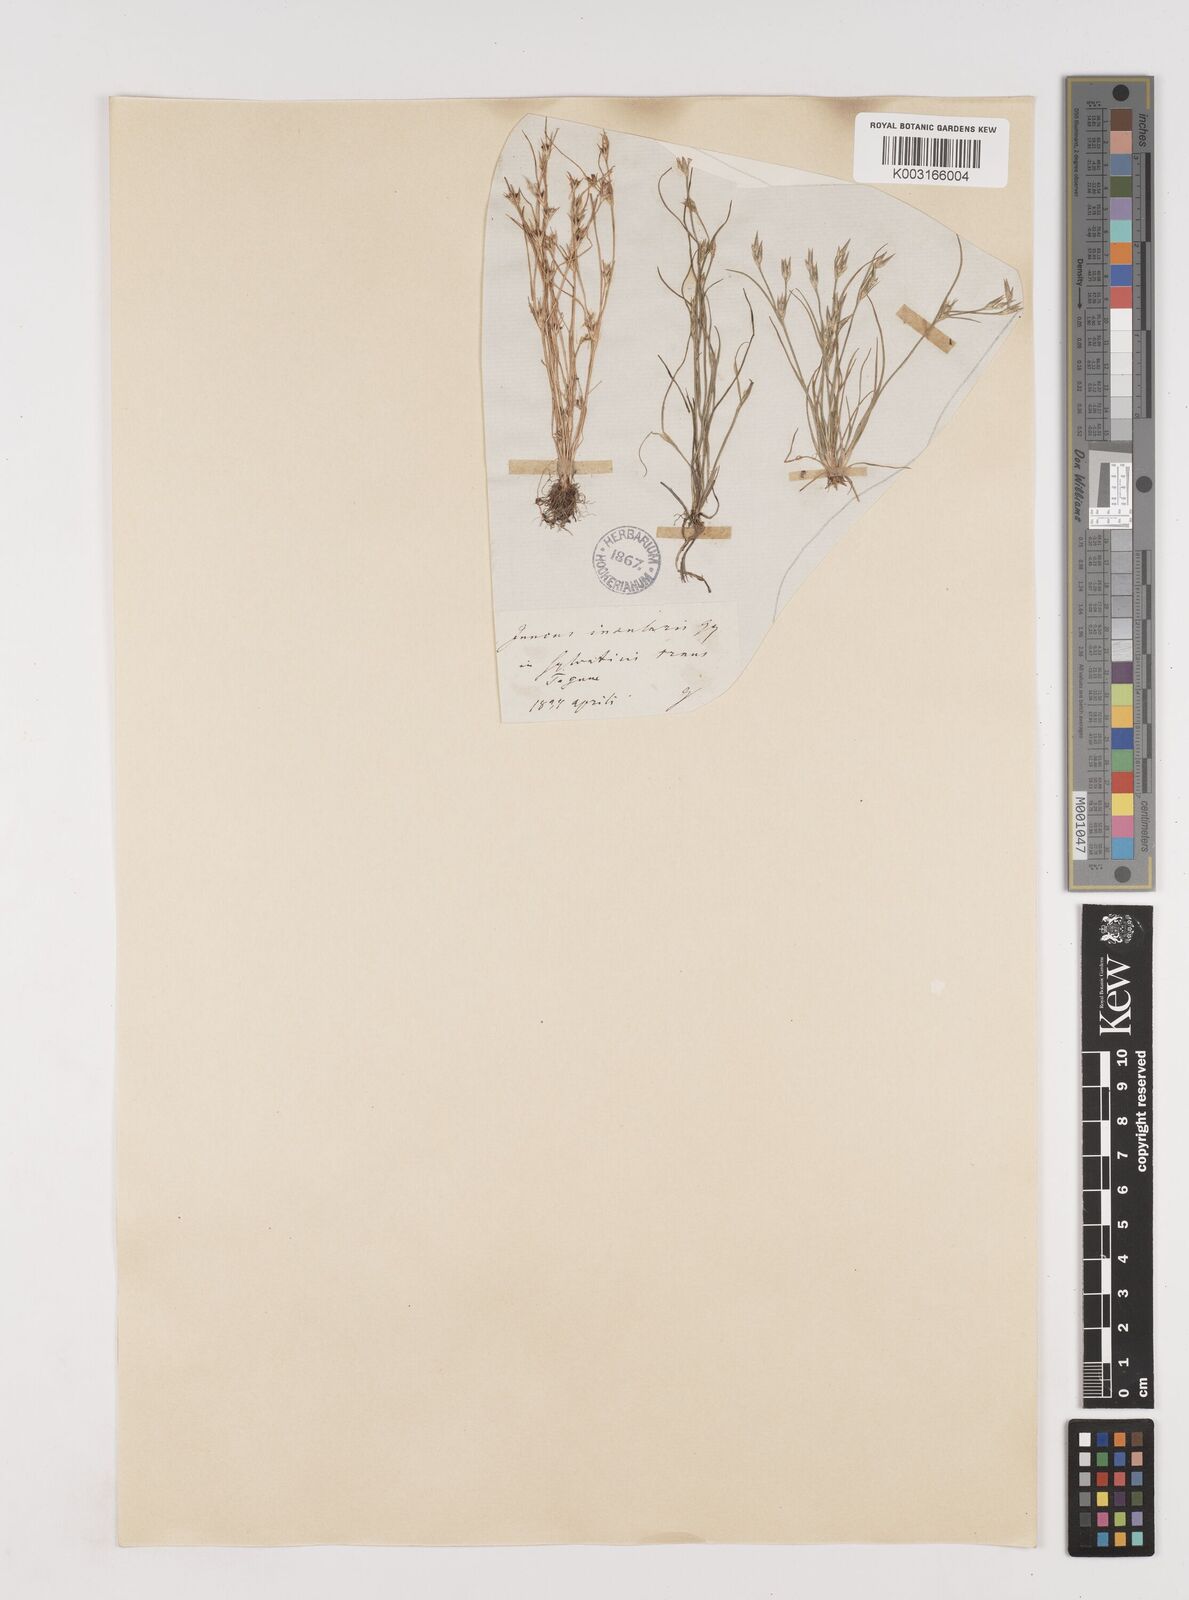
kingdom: Plantae
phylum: Tracheophyta
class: Liliopsida
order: Poales
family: Juncaceae
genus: Juncus
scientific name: Juncus bufonius
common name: Toad rush
